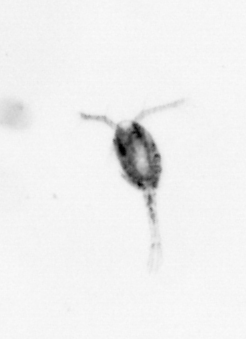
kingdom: Animalia
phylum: Arthropoda
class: Copepoda
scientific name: Copepoda
